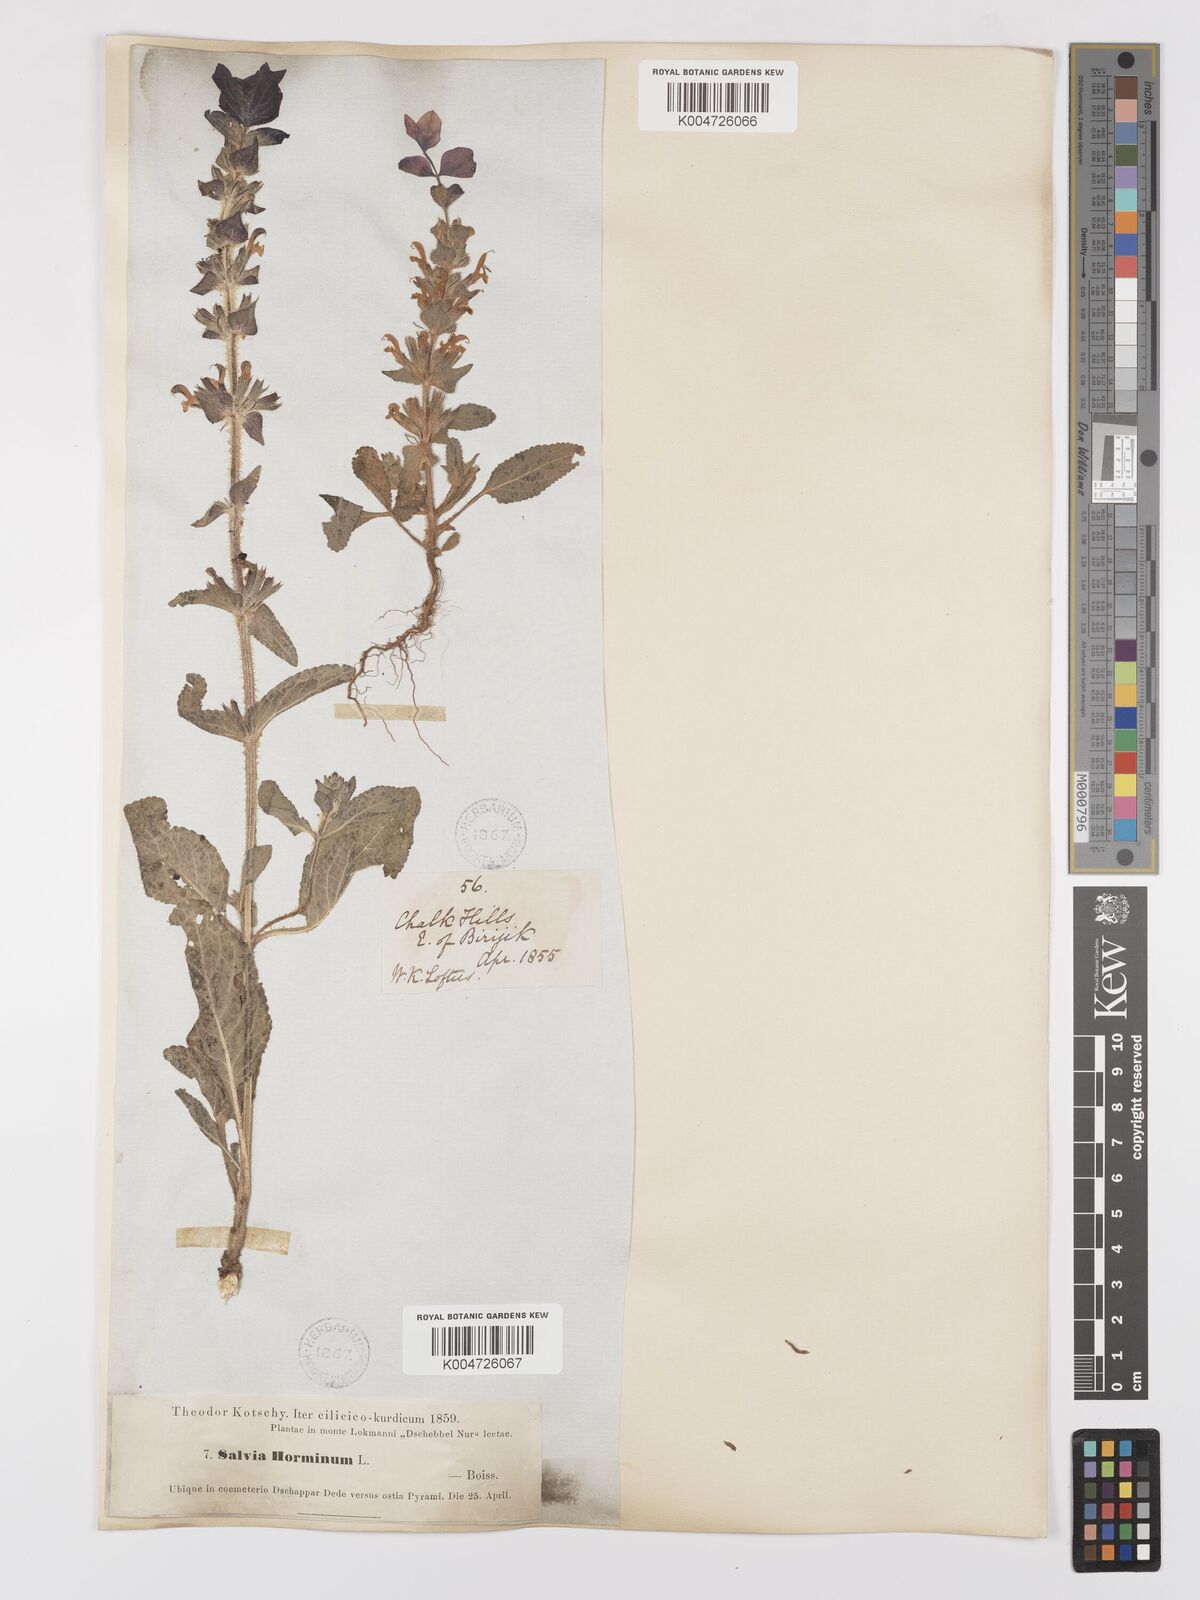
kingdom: Plantae
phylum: Tracheophyta
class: Magnoliopsida
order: Lamiales
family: Lamiaceae
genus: Salvia
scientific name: Salvia viridis
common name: Annual clary
